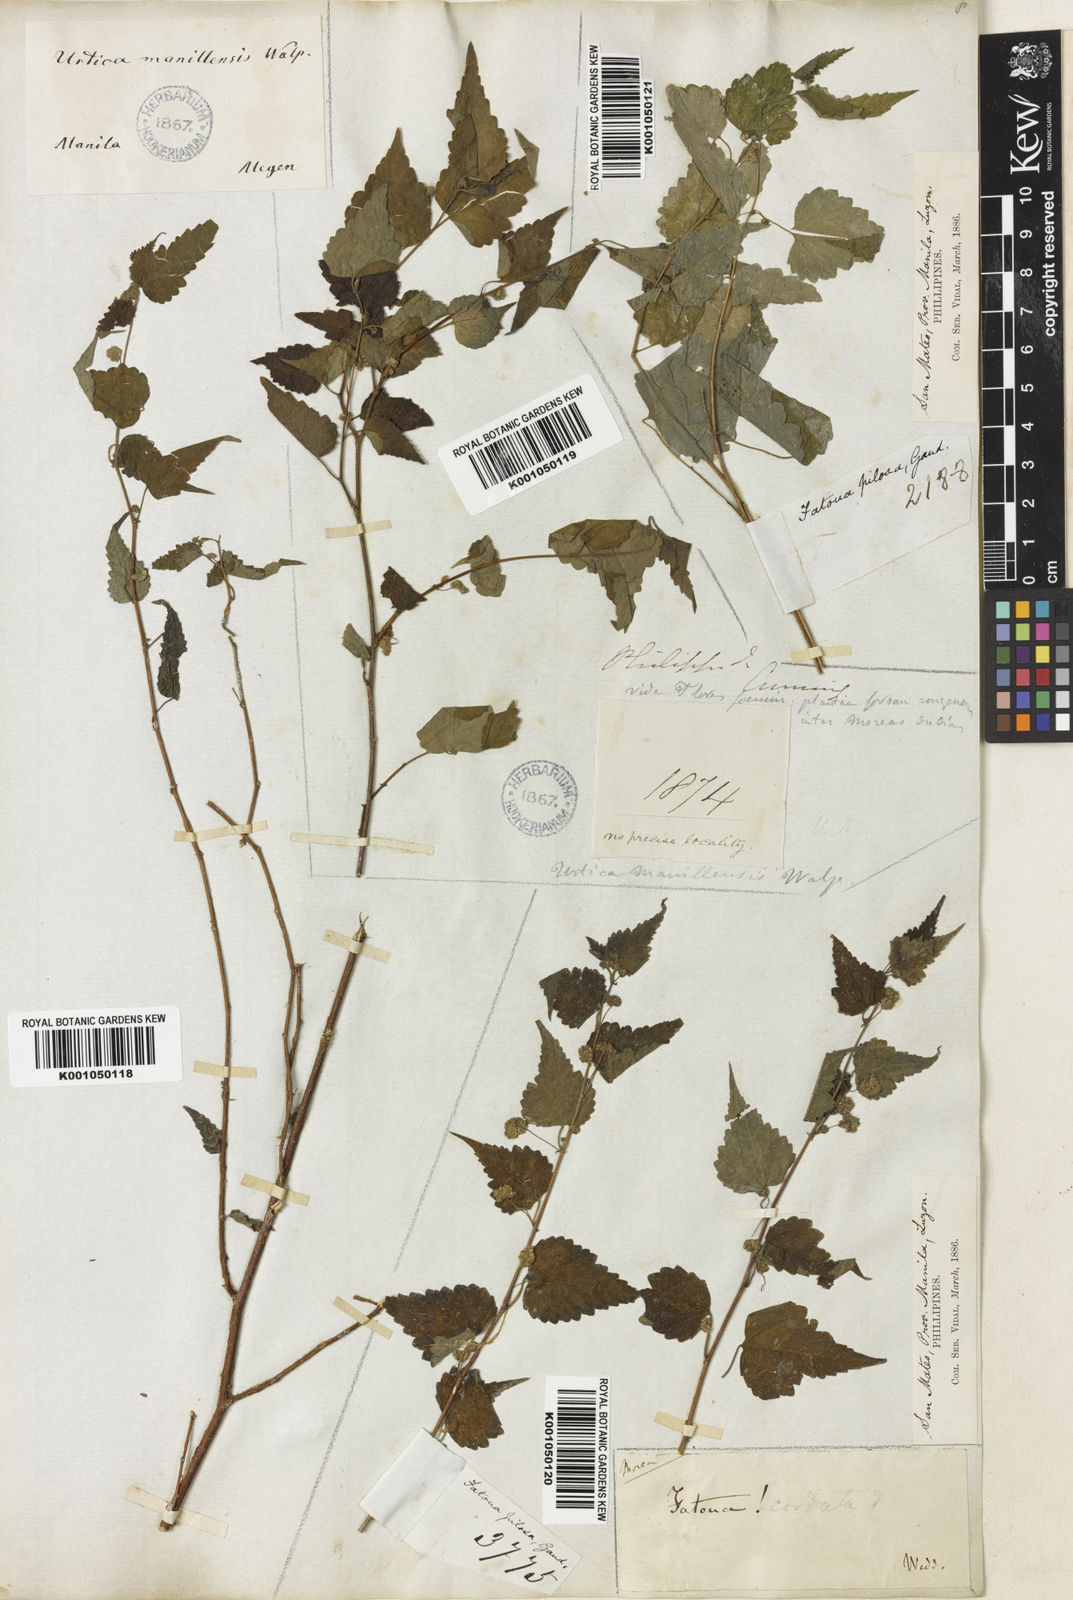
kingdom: Plantae
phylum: Tracheophyta
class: Magnoliopsida
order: Rosales
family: Moraceae
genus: Fatoua
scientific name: Fatoua villosa
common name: Hairy crabweed
